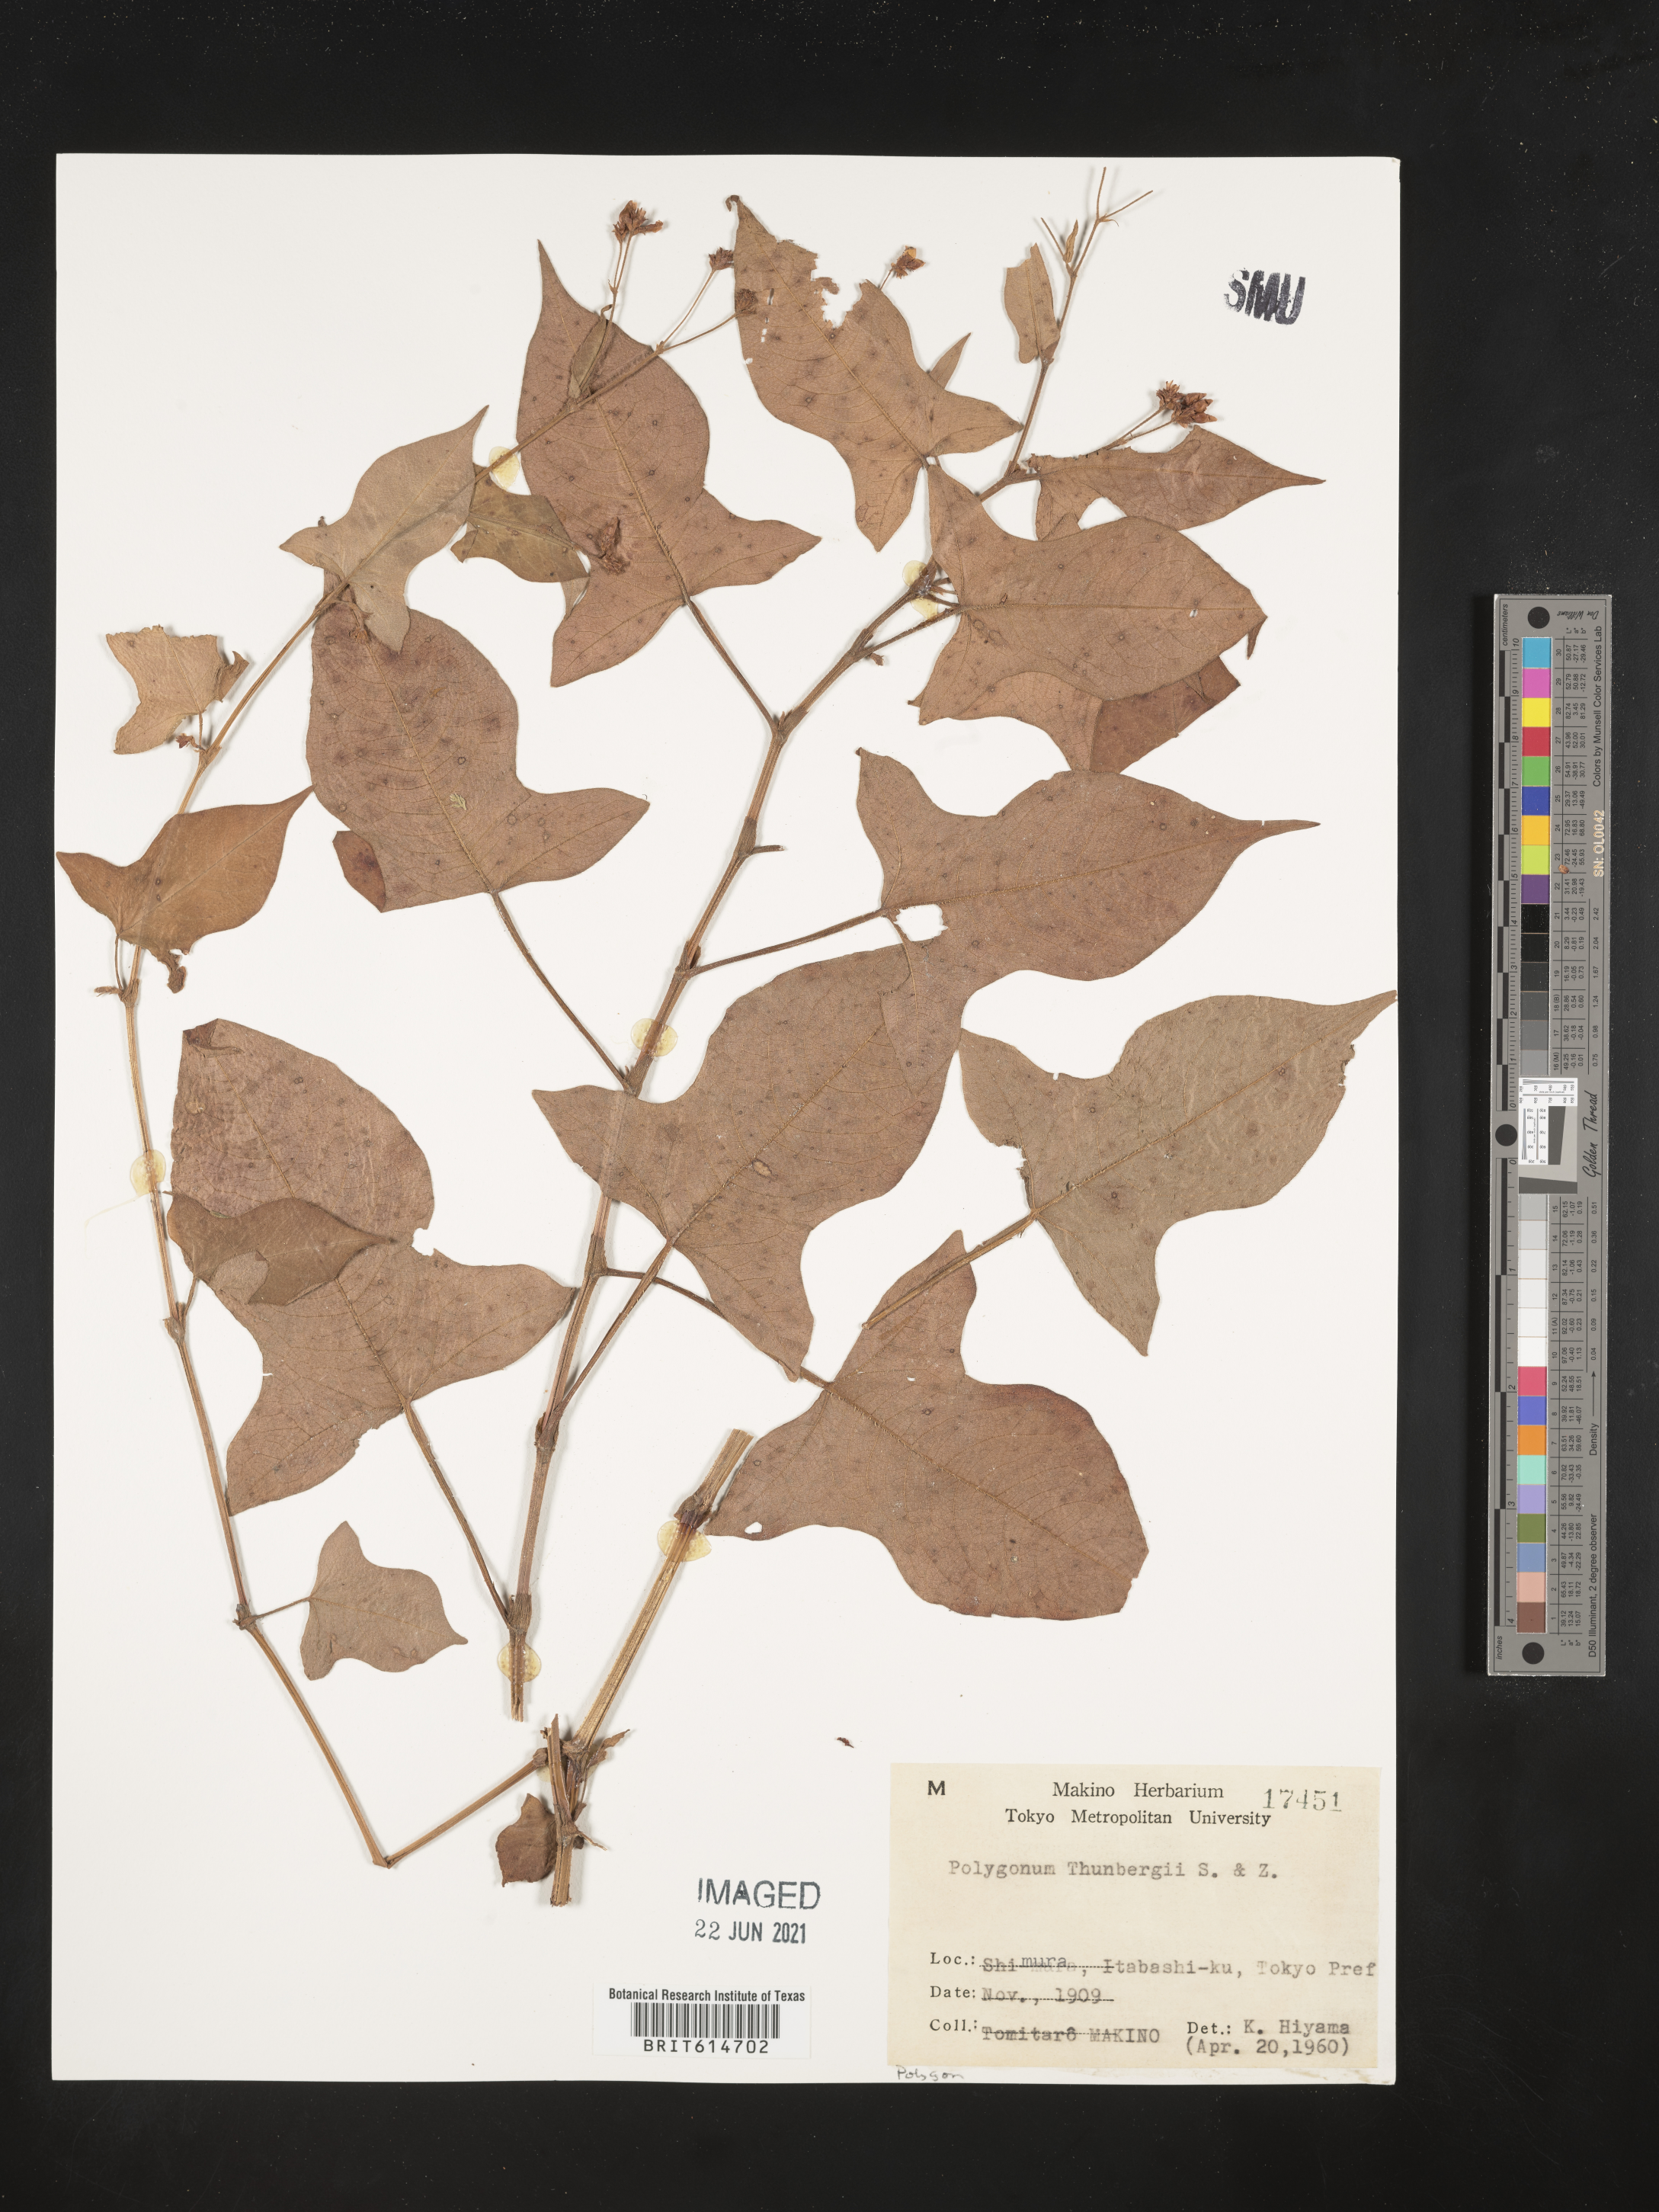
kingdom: Plantae
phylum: Tracheophyta
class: Magnoliopsida
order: Caryophyllales
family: Polygonaceae
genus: Persicaria
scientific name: Persicaria thunbergii
